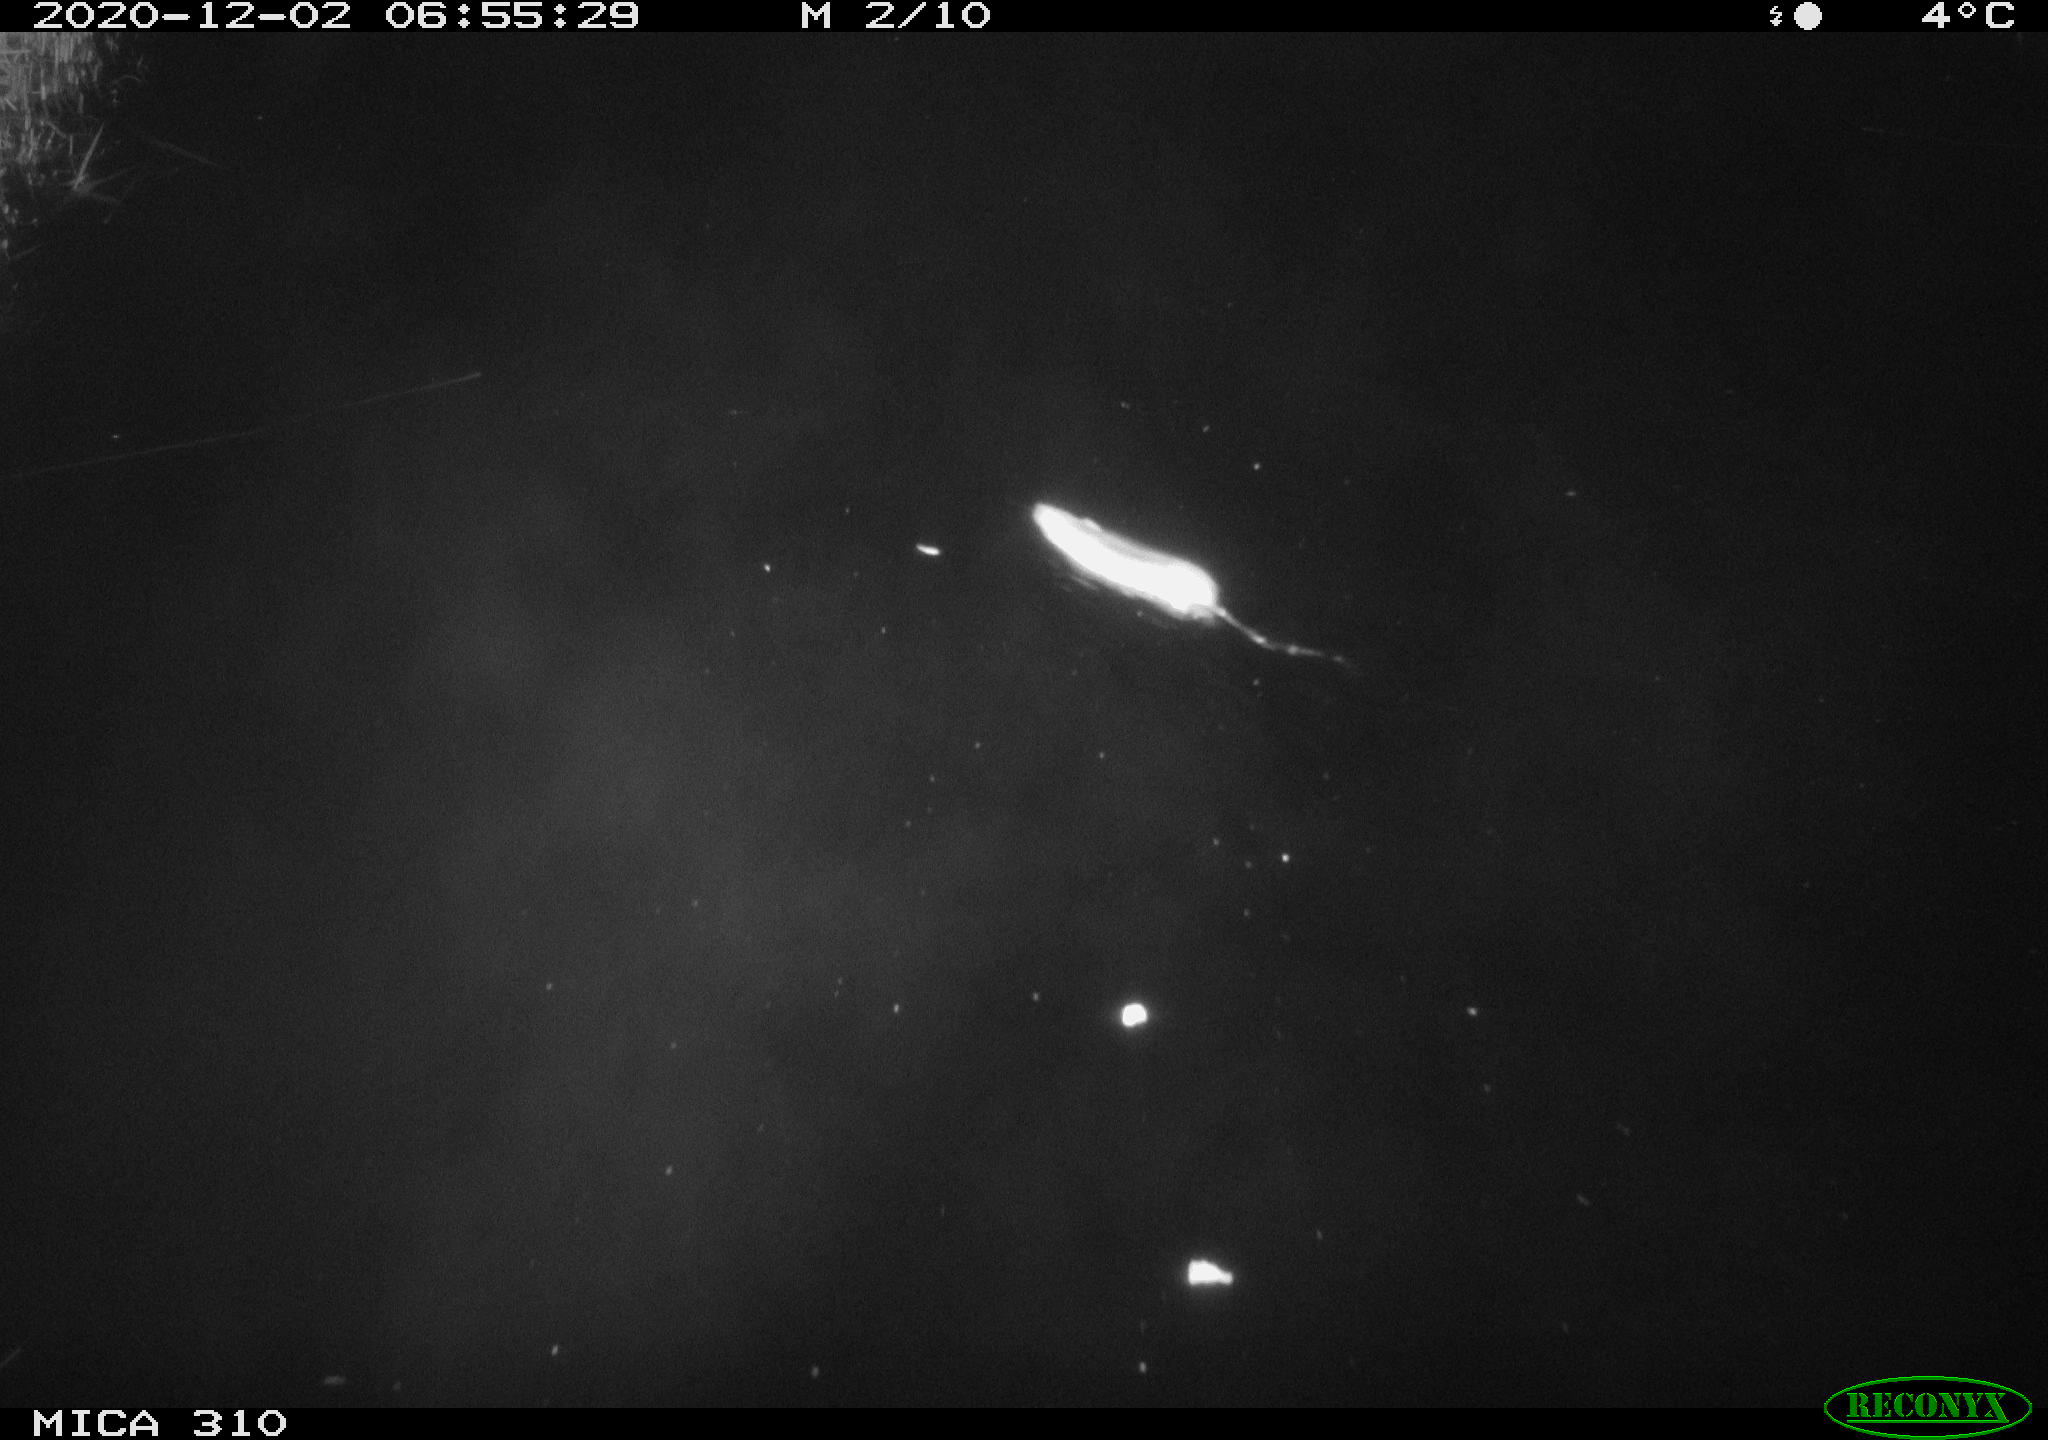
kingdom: Animalia
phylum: Chordata
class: Mammalia
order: Rodentia
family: Muridae
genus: Rattus
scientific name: Rattus norvegicus
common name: Brown rat
